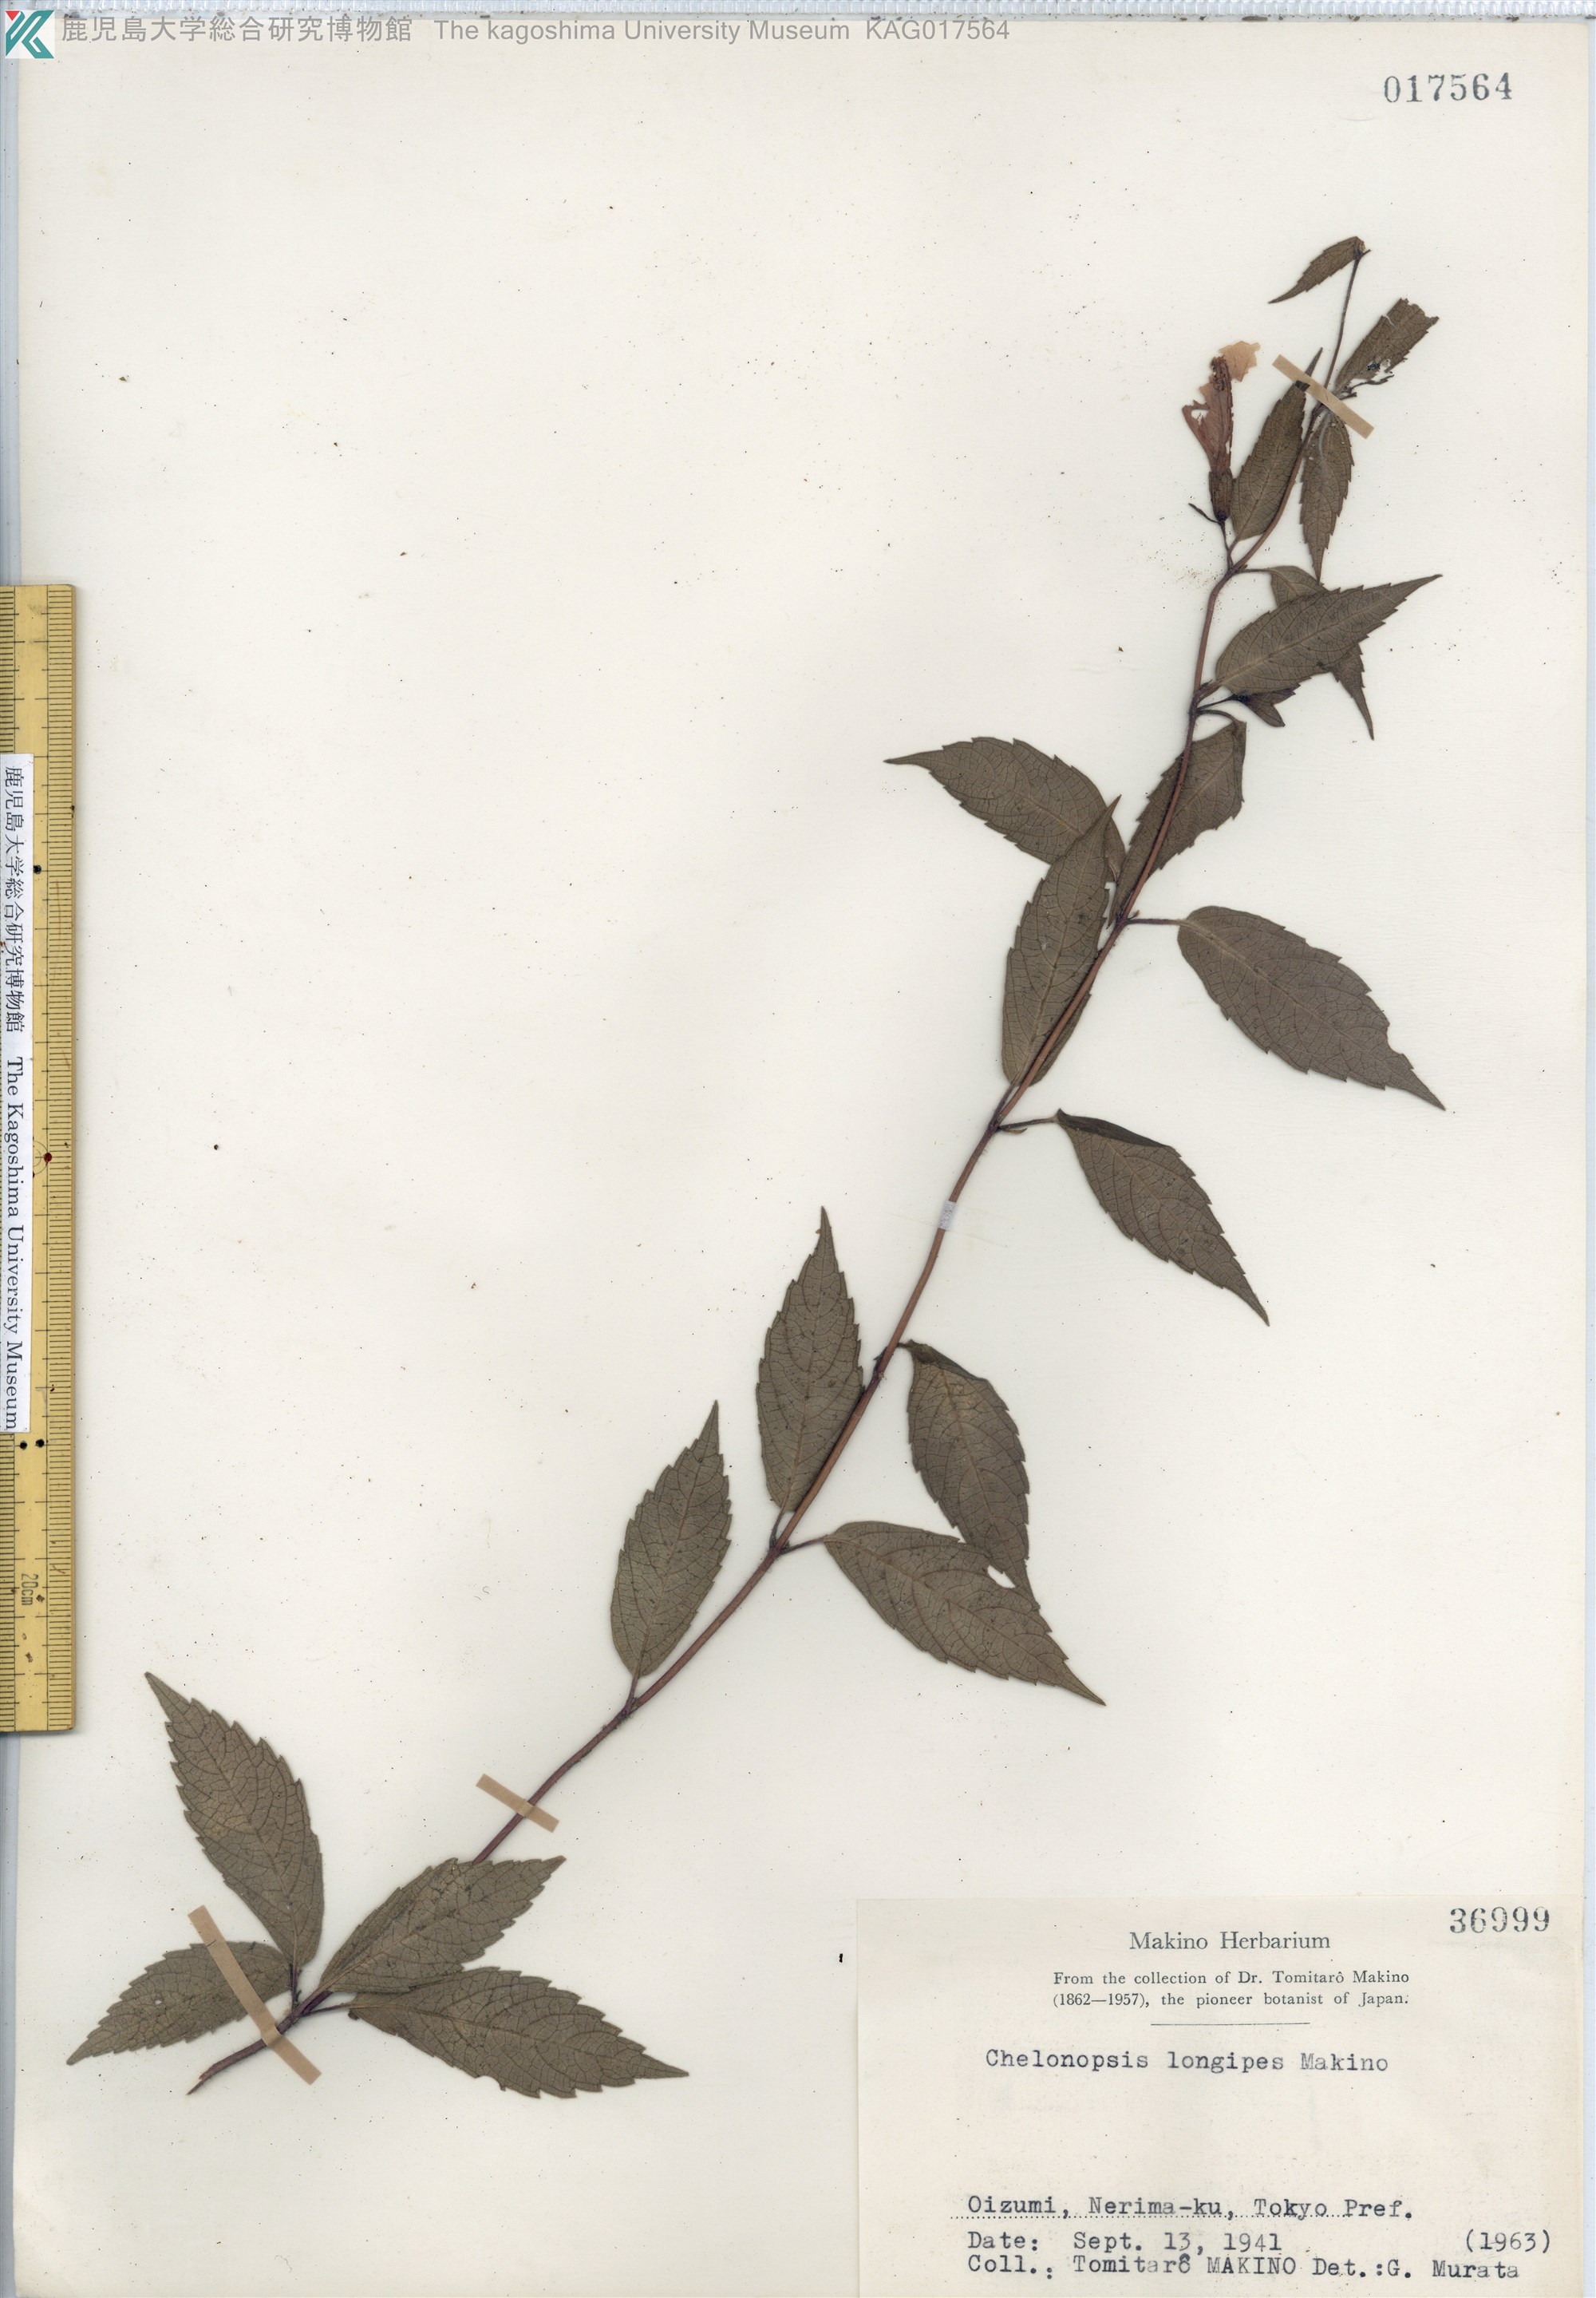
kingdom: Plantae
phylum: Tracheophyta
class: Magnoliopsida
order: Lamiales
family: Lamiaceae
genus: Chelonopsis
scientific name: Chelonopsis longipes
